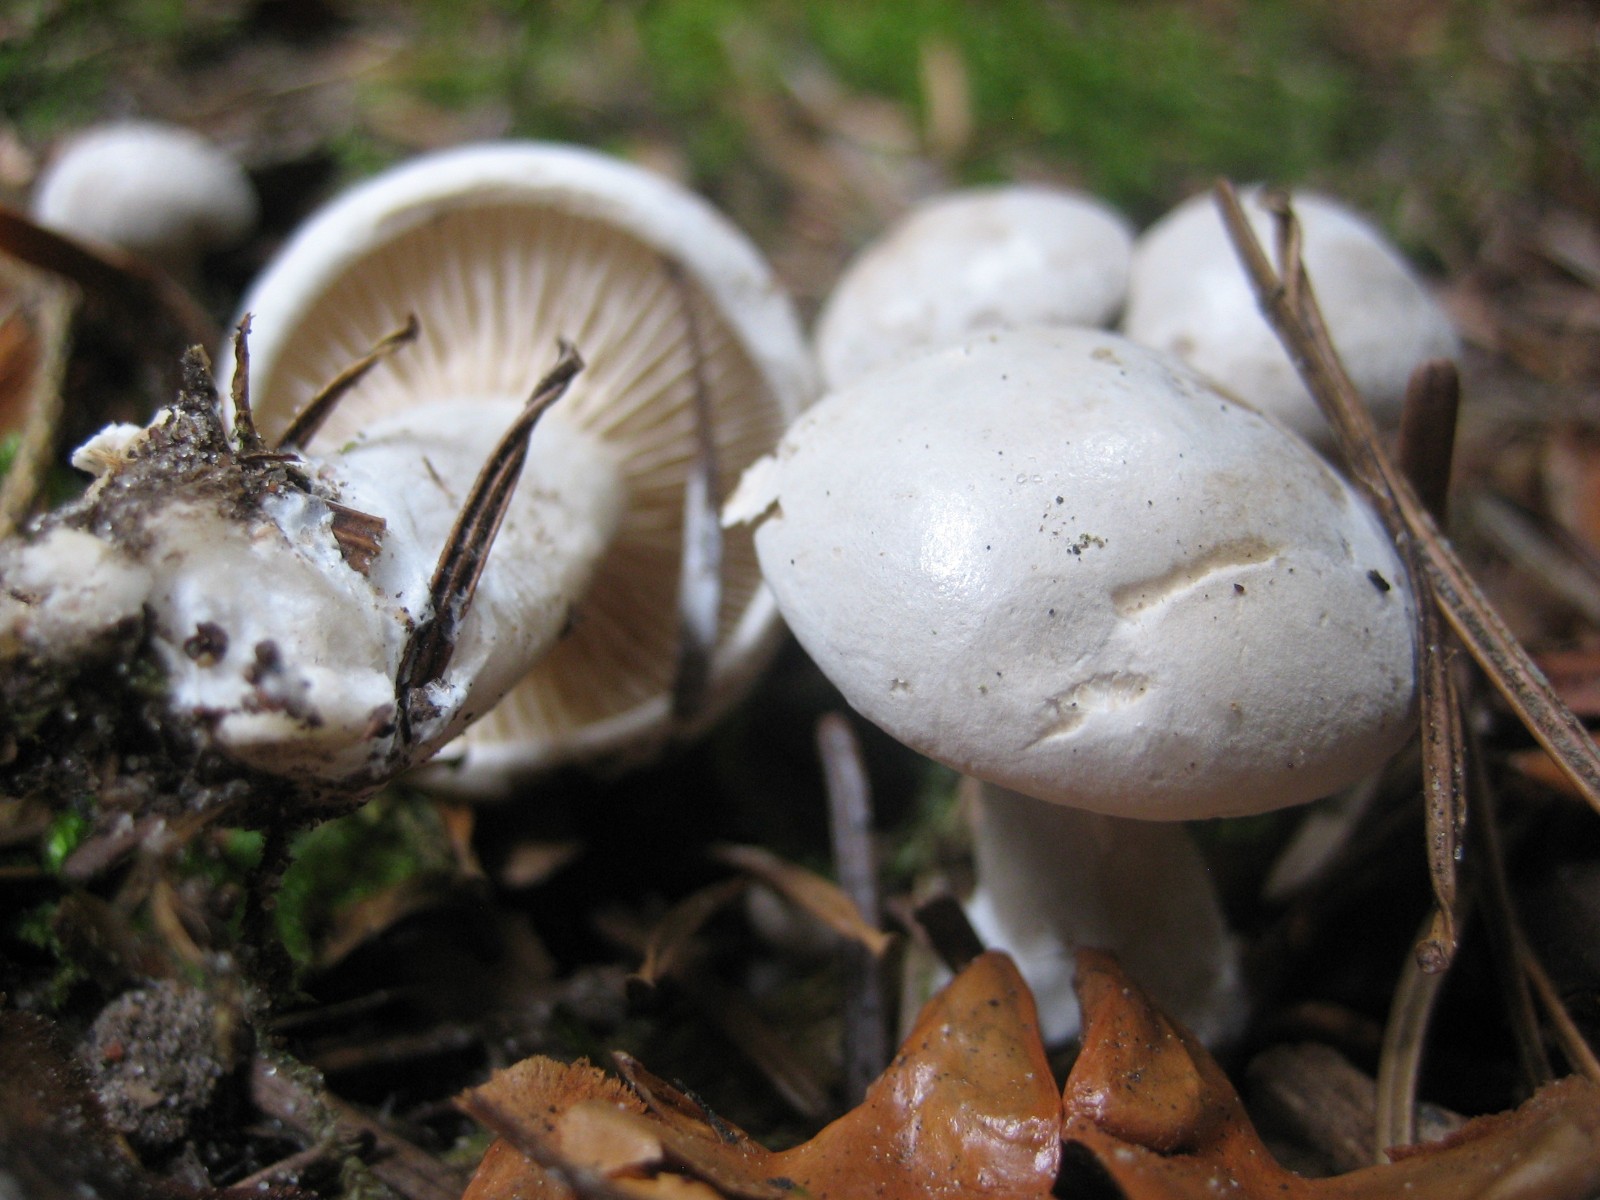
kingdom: Fungi
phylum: Basidiomycota
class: Agaricomycetes
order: Agaricales
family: Entolomataceae
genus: Clitopilus
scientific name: Clitopilus prunulus
